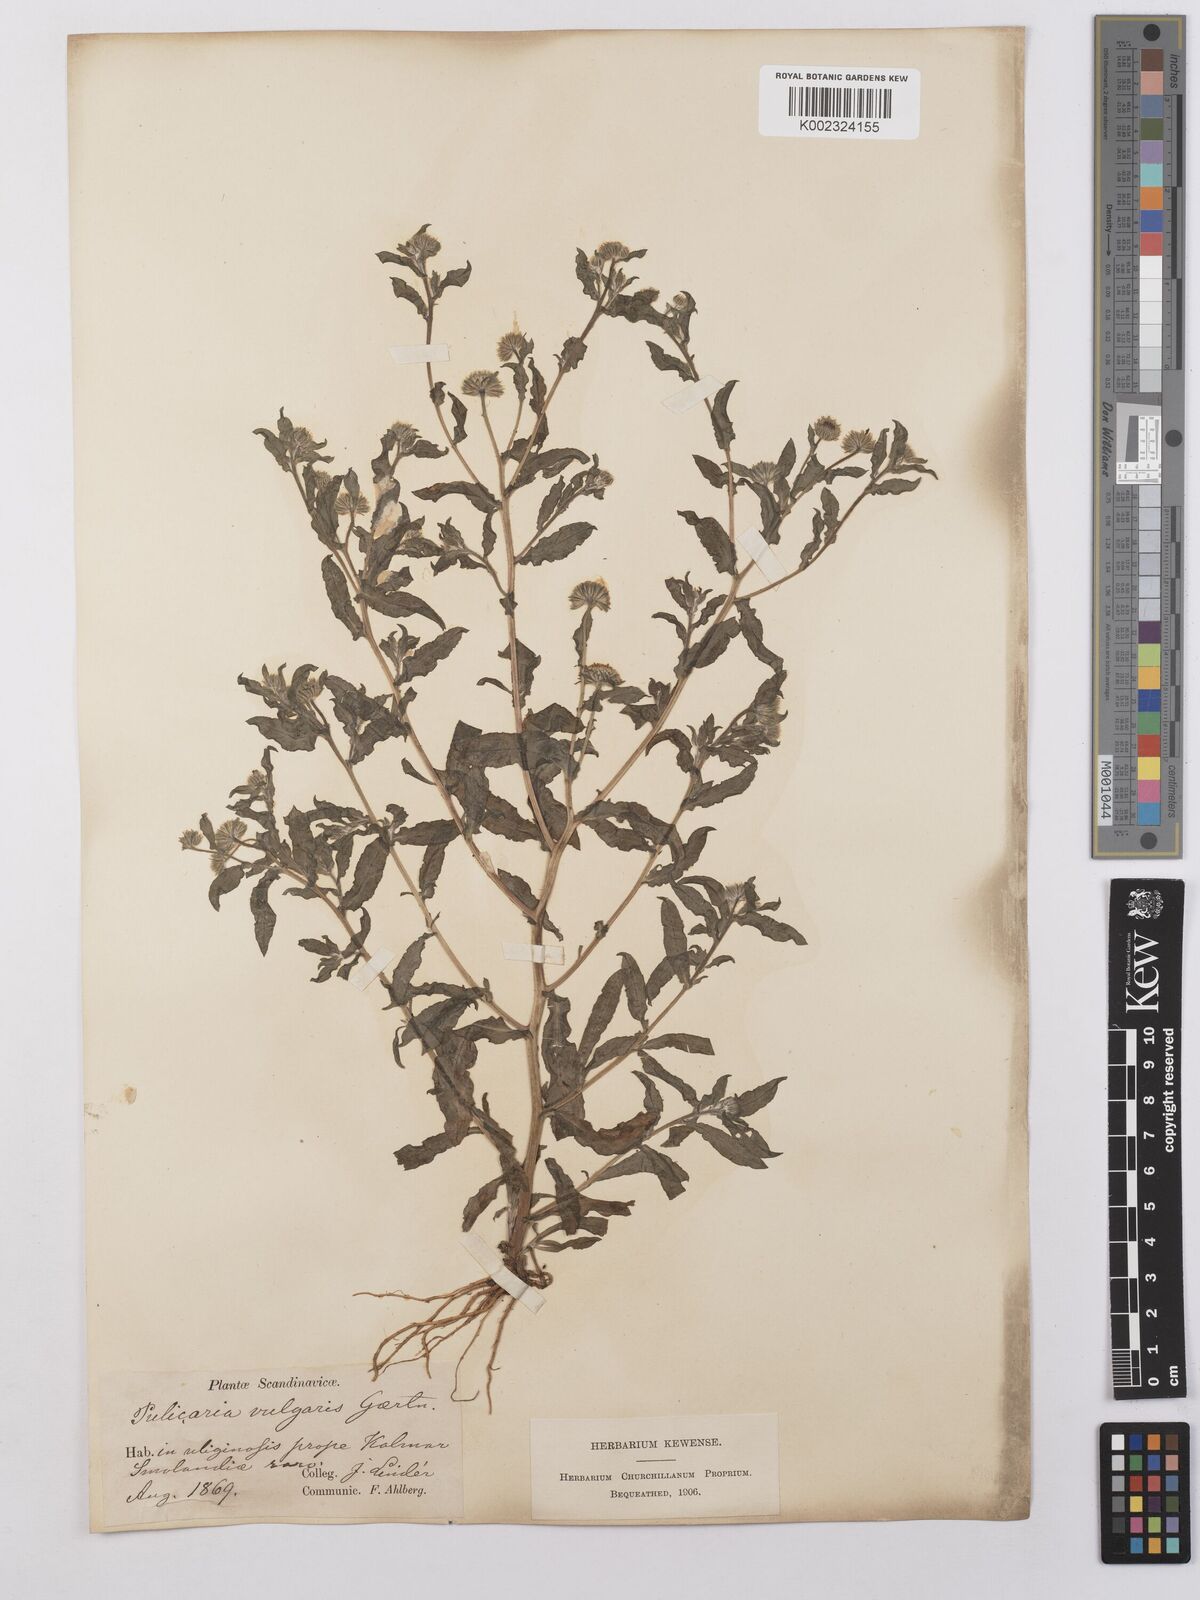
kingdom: Plantae
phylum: Tracheophyta
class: Magnoliopsida
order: Asterales
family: Asteraceae
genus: Pulicaria
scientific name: Pulicaria vulgaris
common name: Small fleabane
